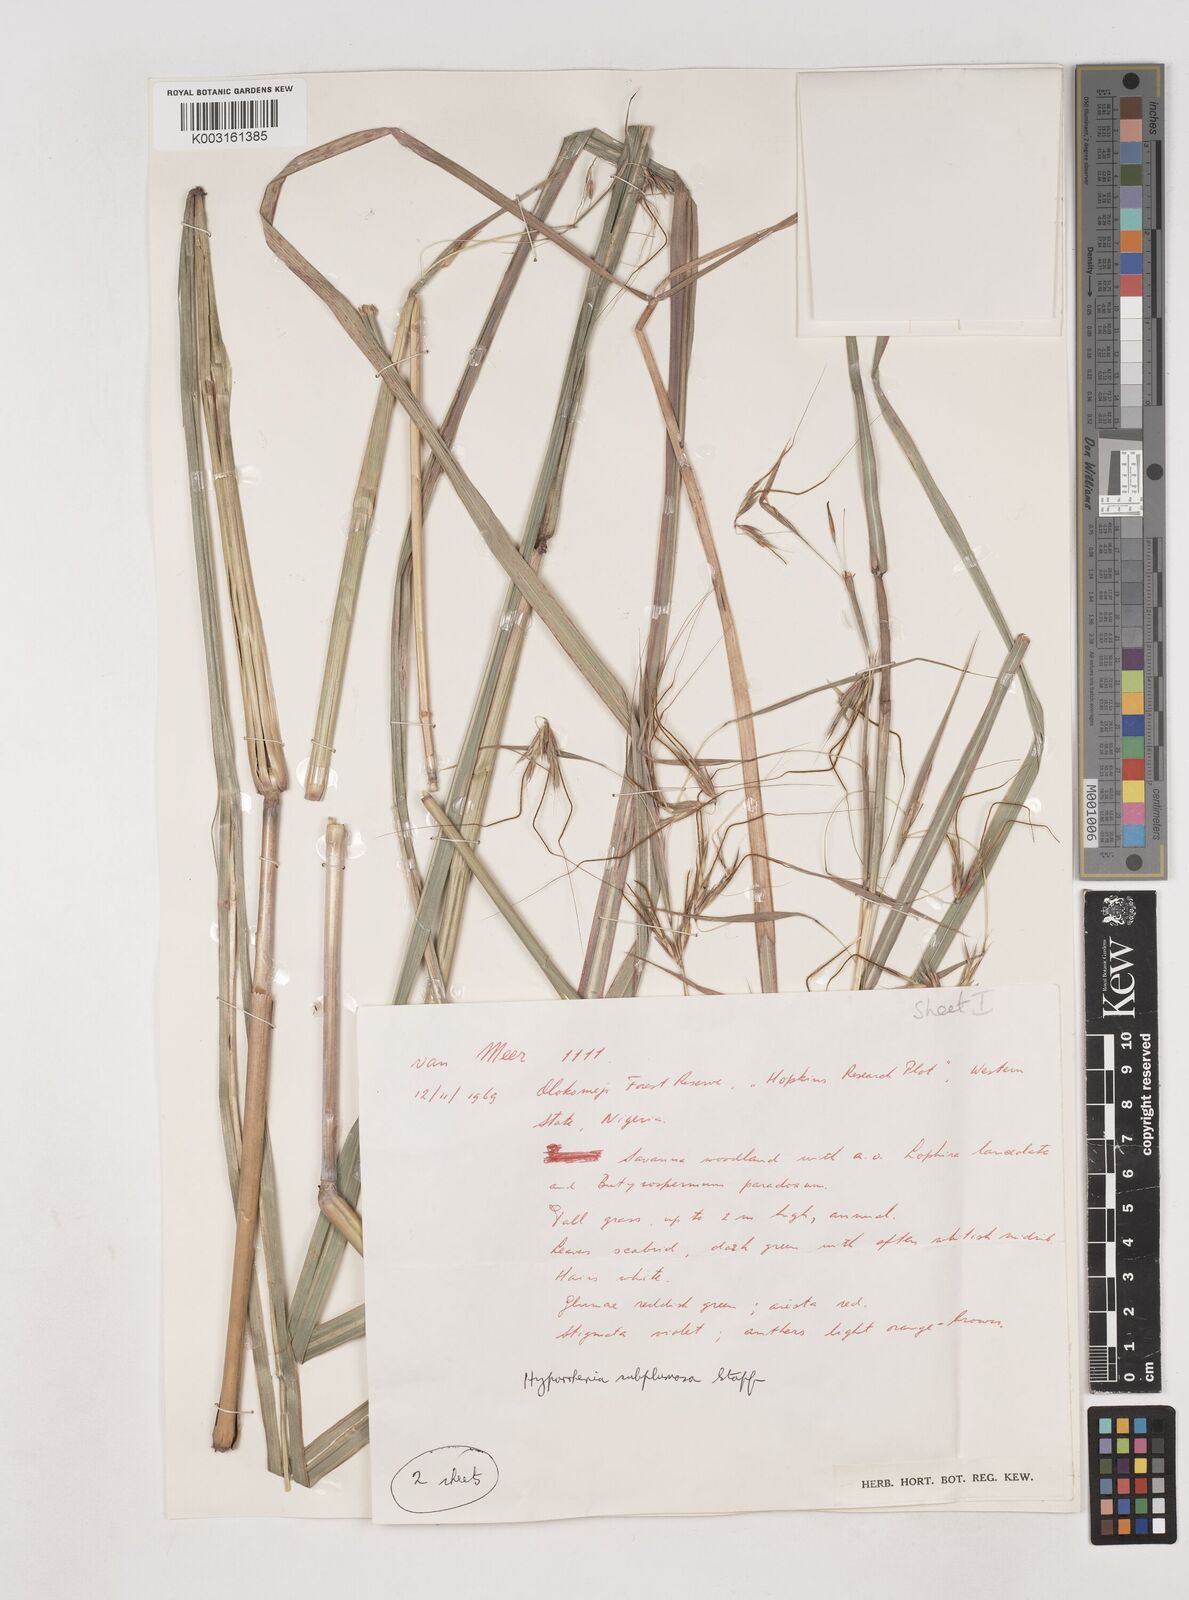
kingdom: Plantae
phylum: Tracheophyta
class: Liliopsida
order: Poales
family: Poaceae
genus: Hyparrhenia
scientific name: Hyparrhenia subplumosa
